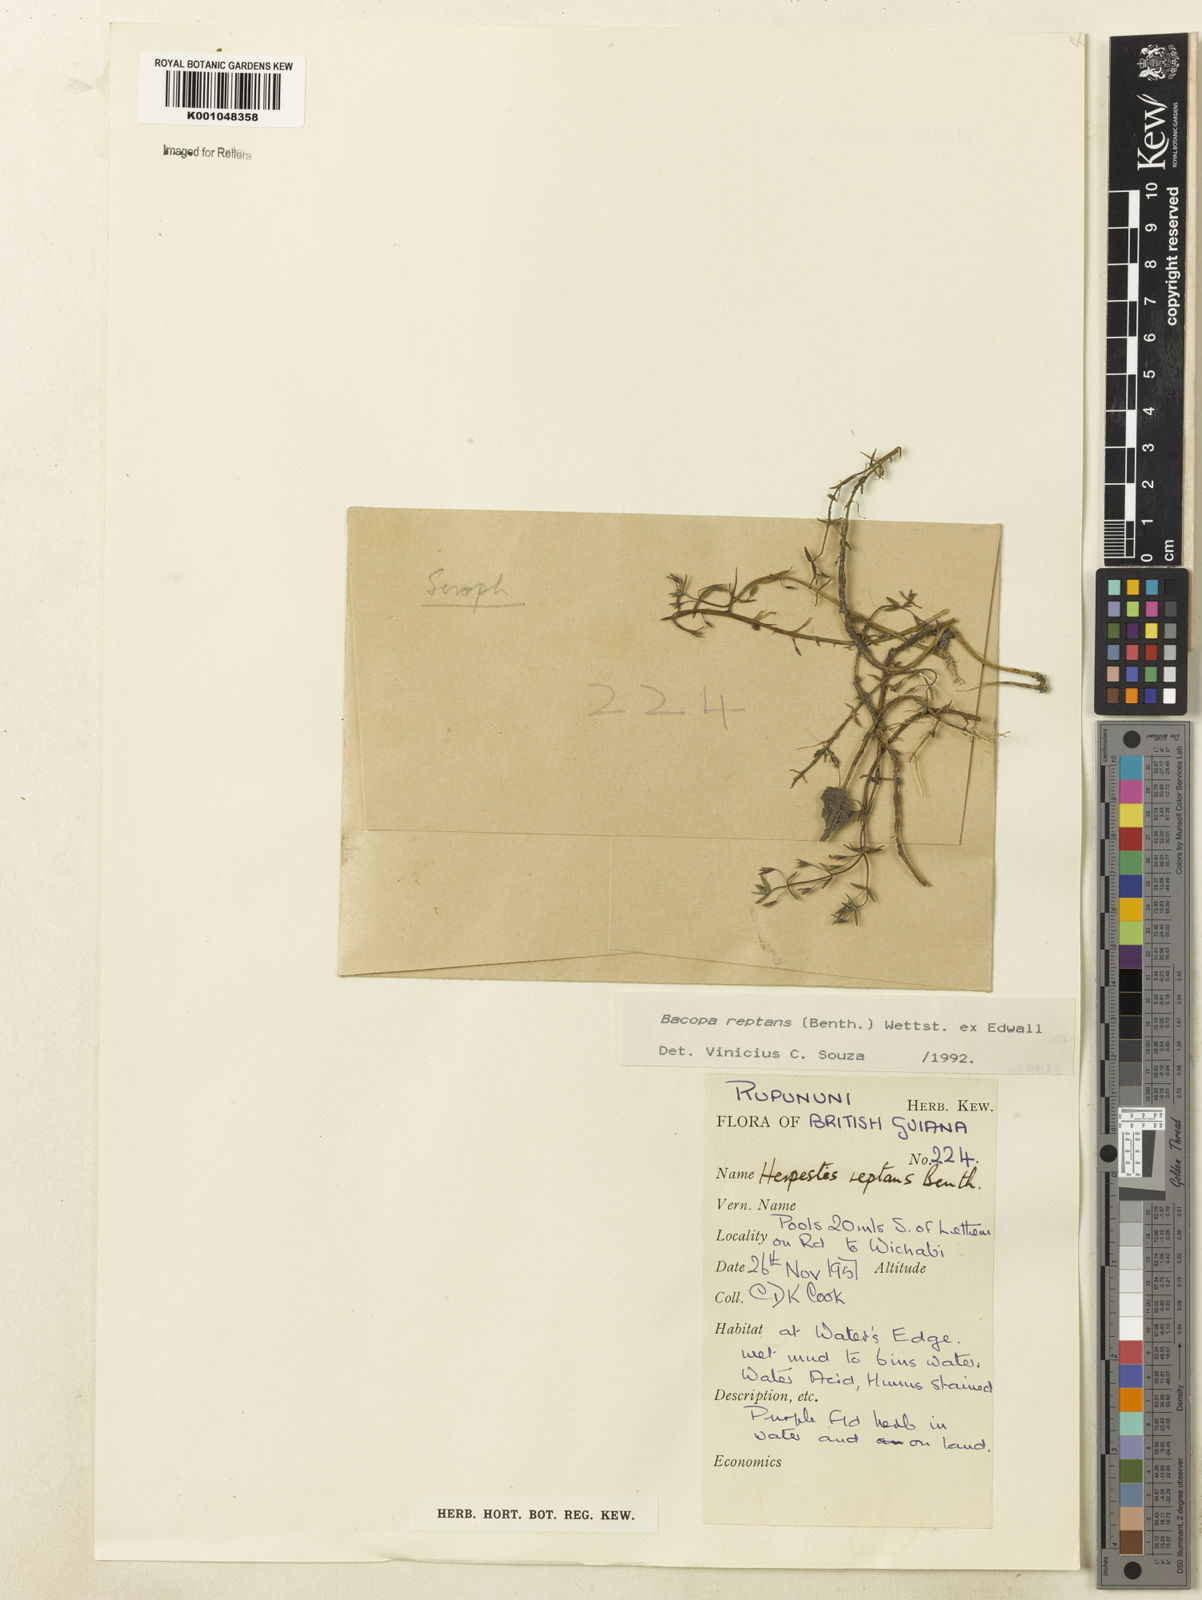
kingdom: Plantae
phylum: Tracheophyta
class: Magnoliopsida
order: Lamiales
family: Plantaginaceae
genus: Bacopa
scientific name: Bacopa
